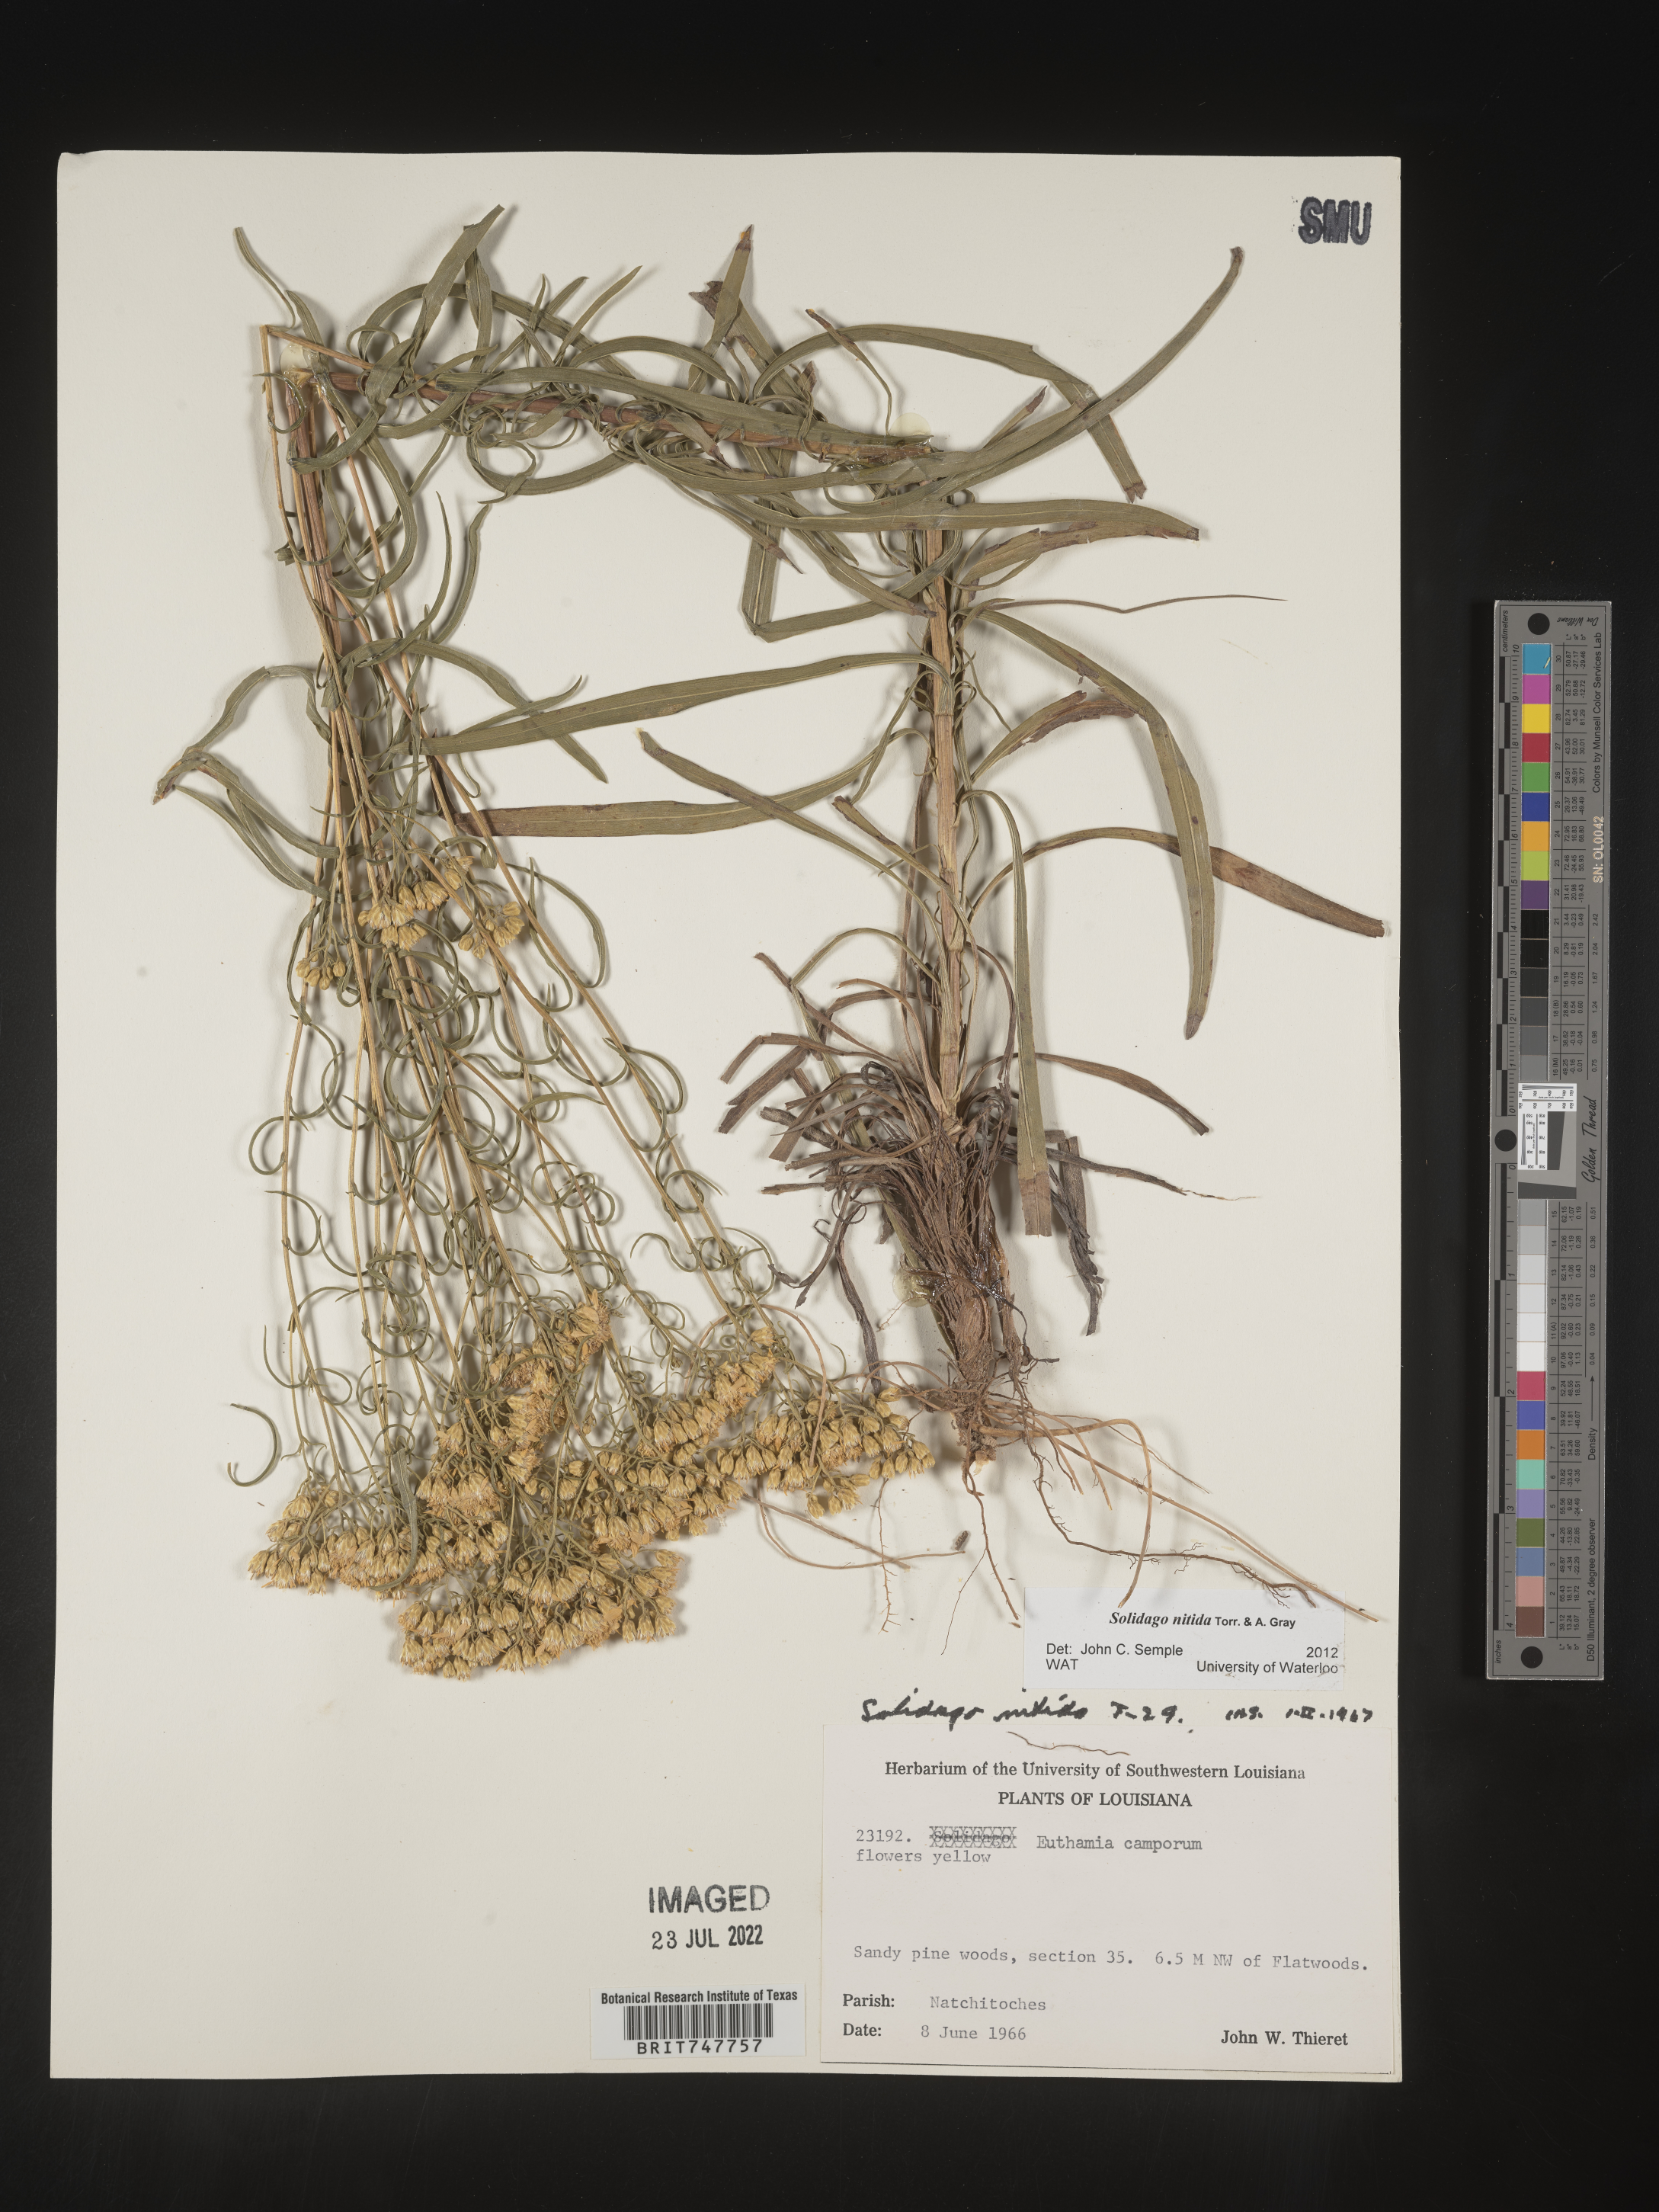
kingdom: Plantae
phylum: Tracheophyta
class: Magnoliopsida
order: Asterales
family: Asteraceae
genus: Solidago
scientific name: Solidago nitida
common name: Shiny goldenrod
